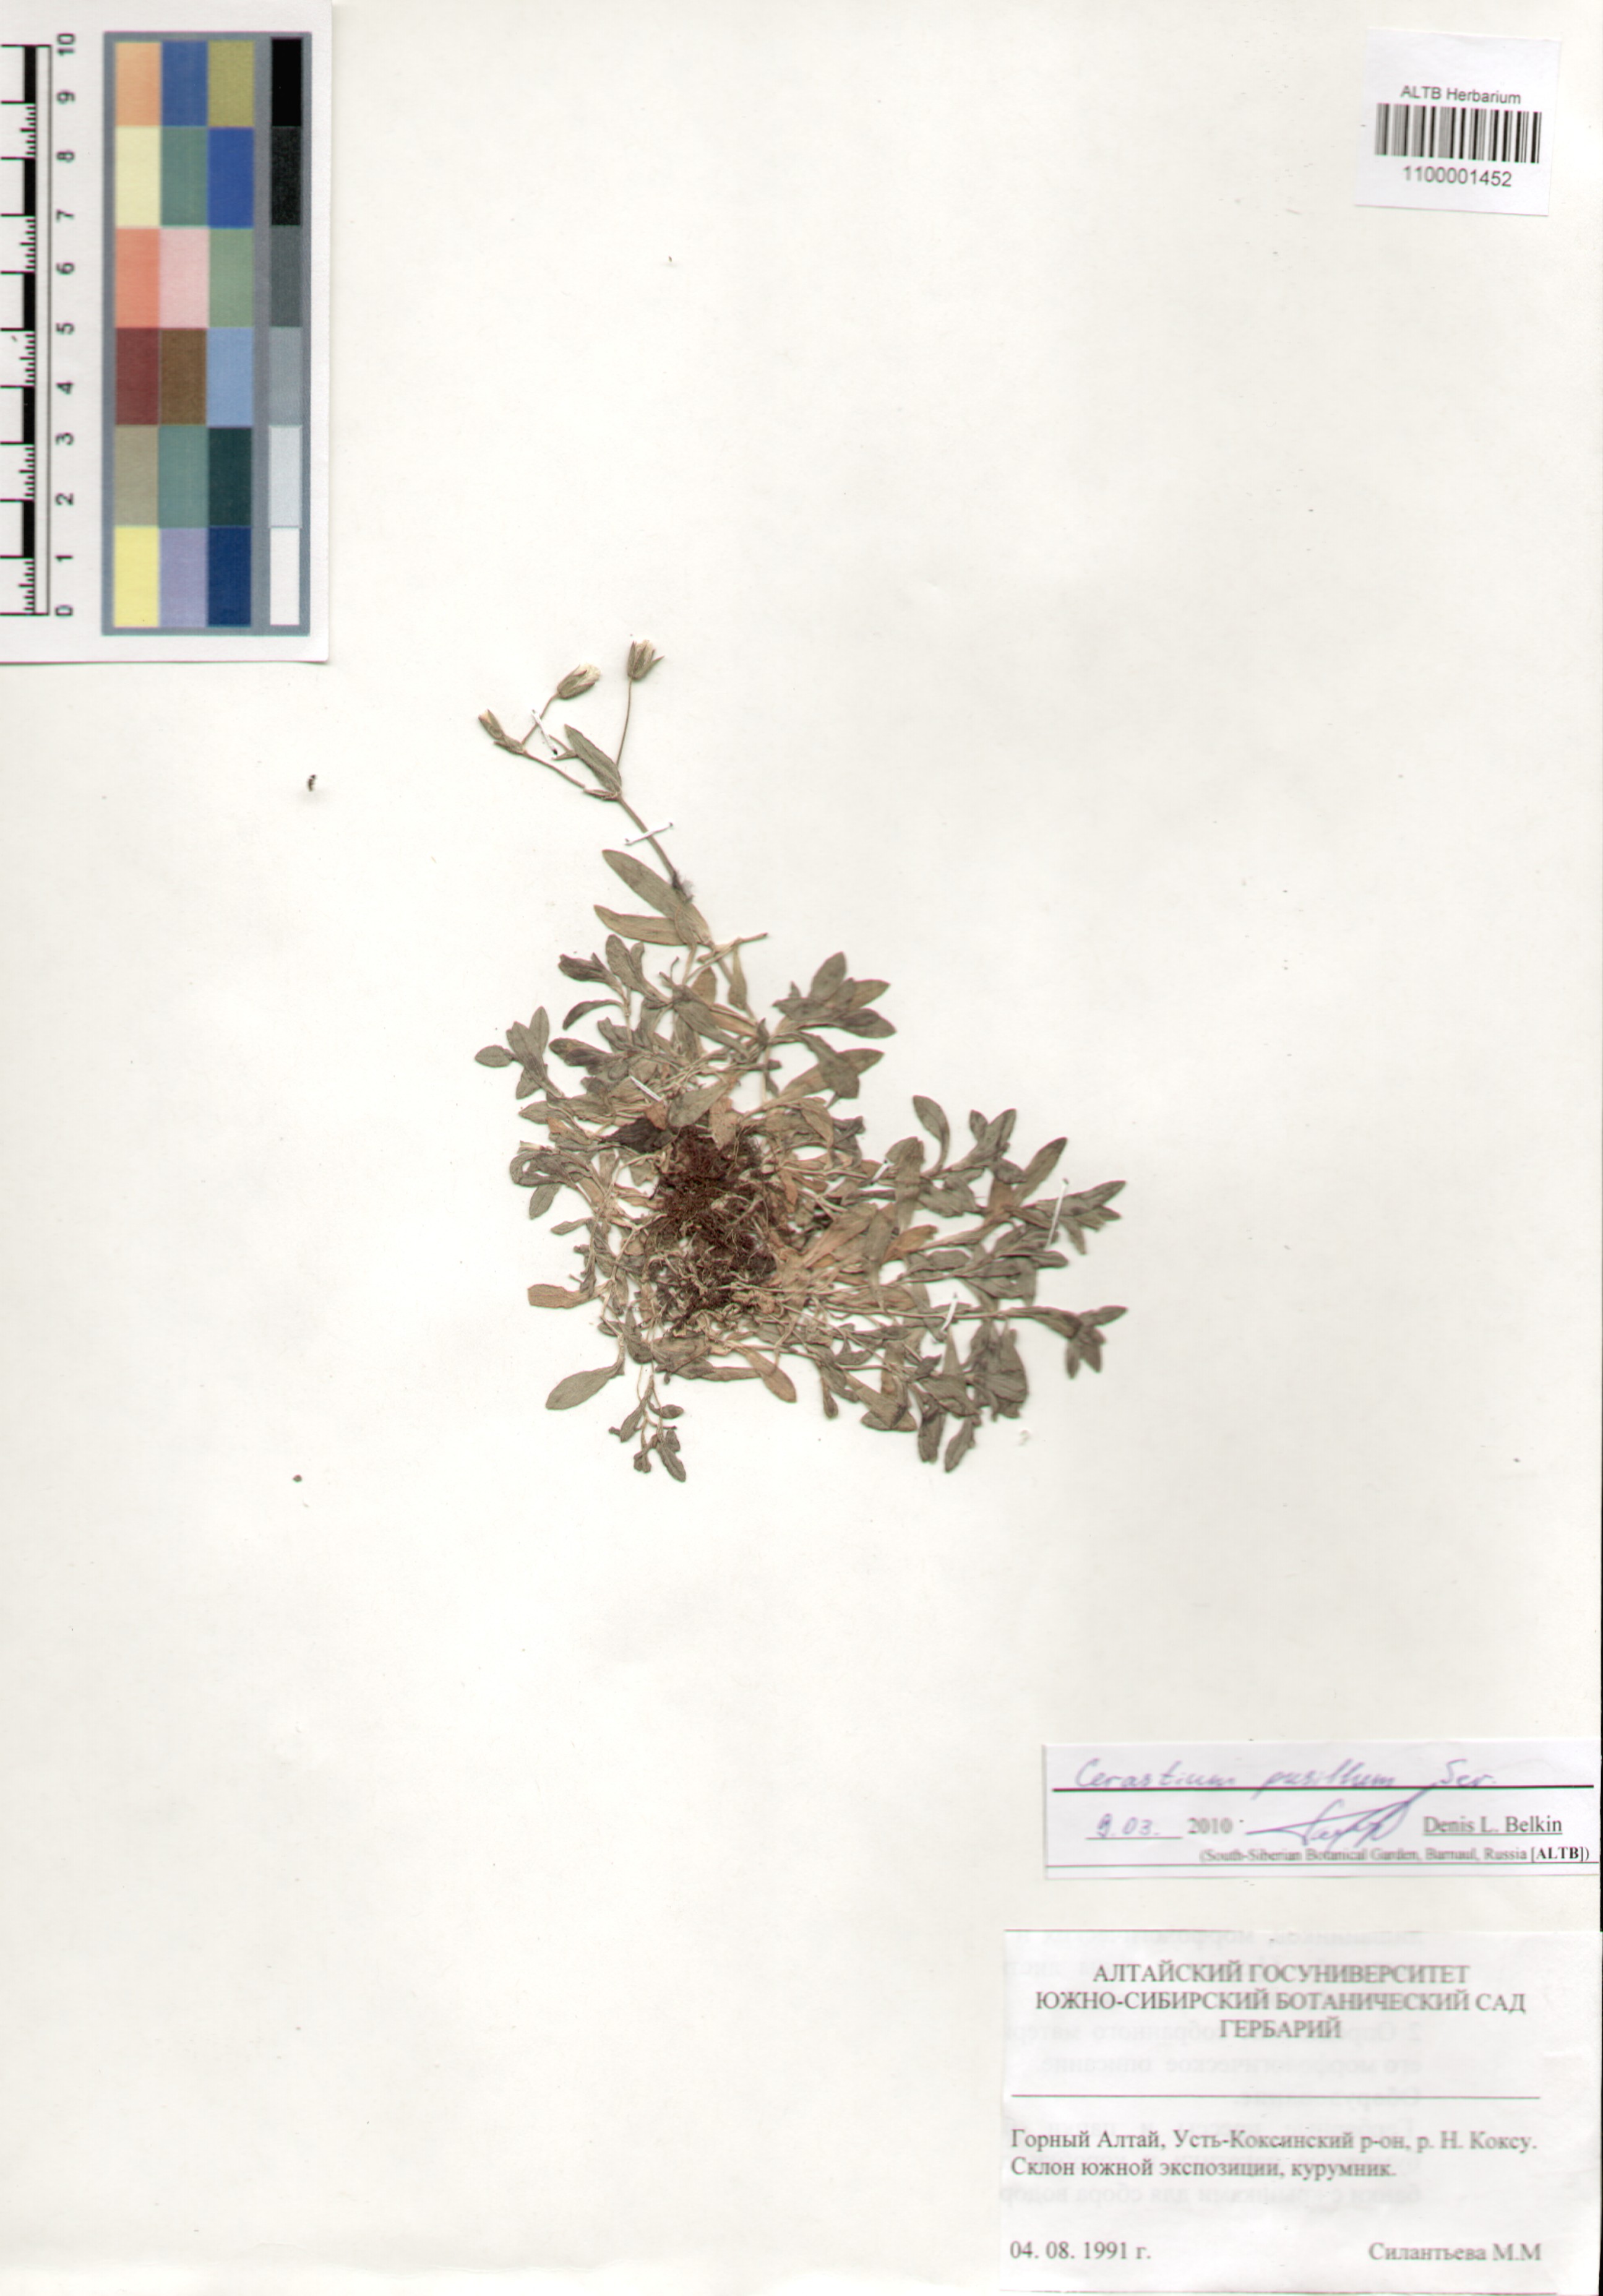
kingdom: Plantae
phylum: Tracheophyta
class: Magnoliopsida
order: Caryophyllales
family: Caryophyllaceae
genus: Cerastium
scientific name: Cerastium pusillum
